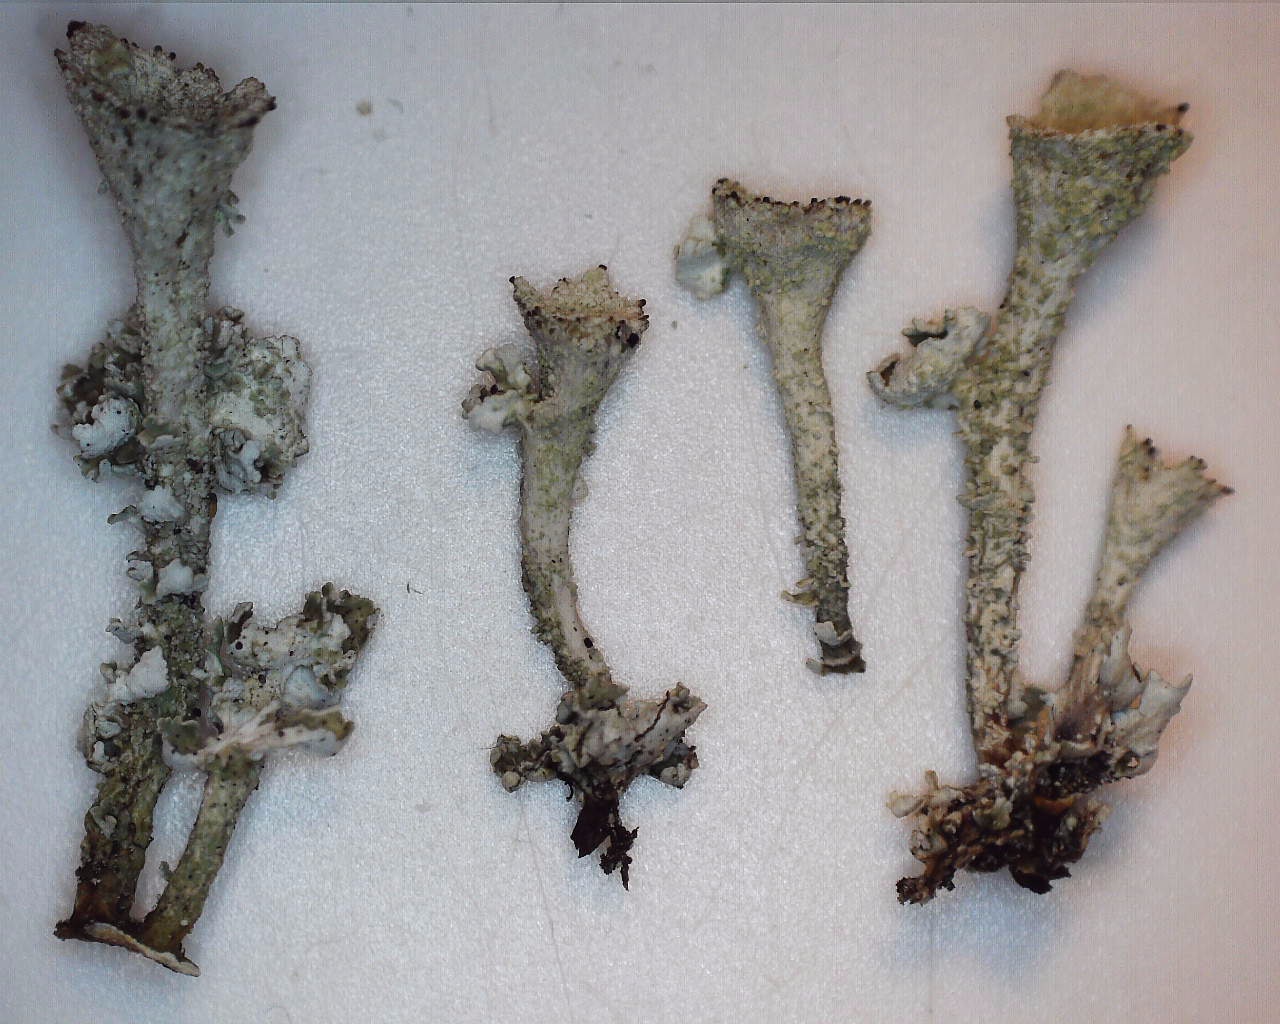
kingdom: Fungi
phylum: Ascomycota
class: Lecanoromycetes
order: Lecanorales
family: Cladoniaceae
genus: Cladonia
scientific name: Cladonia
